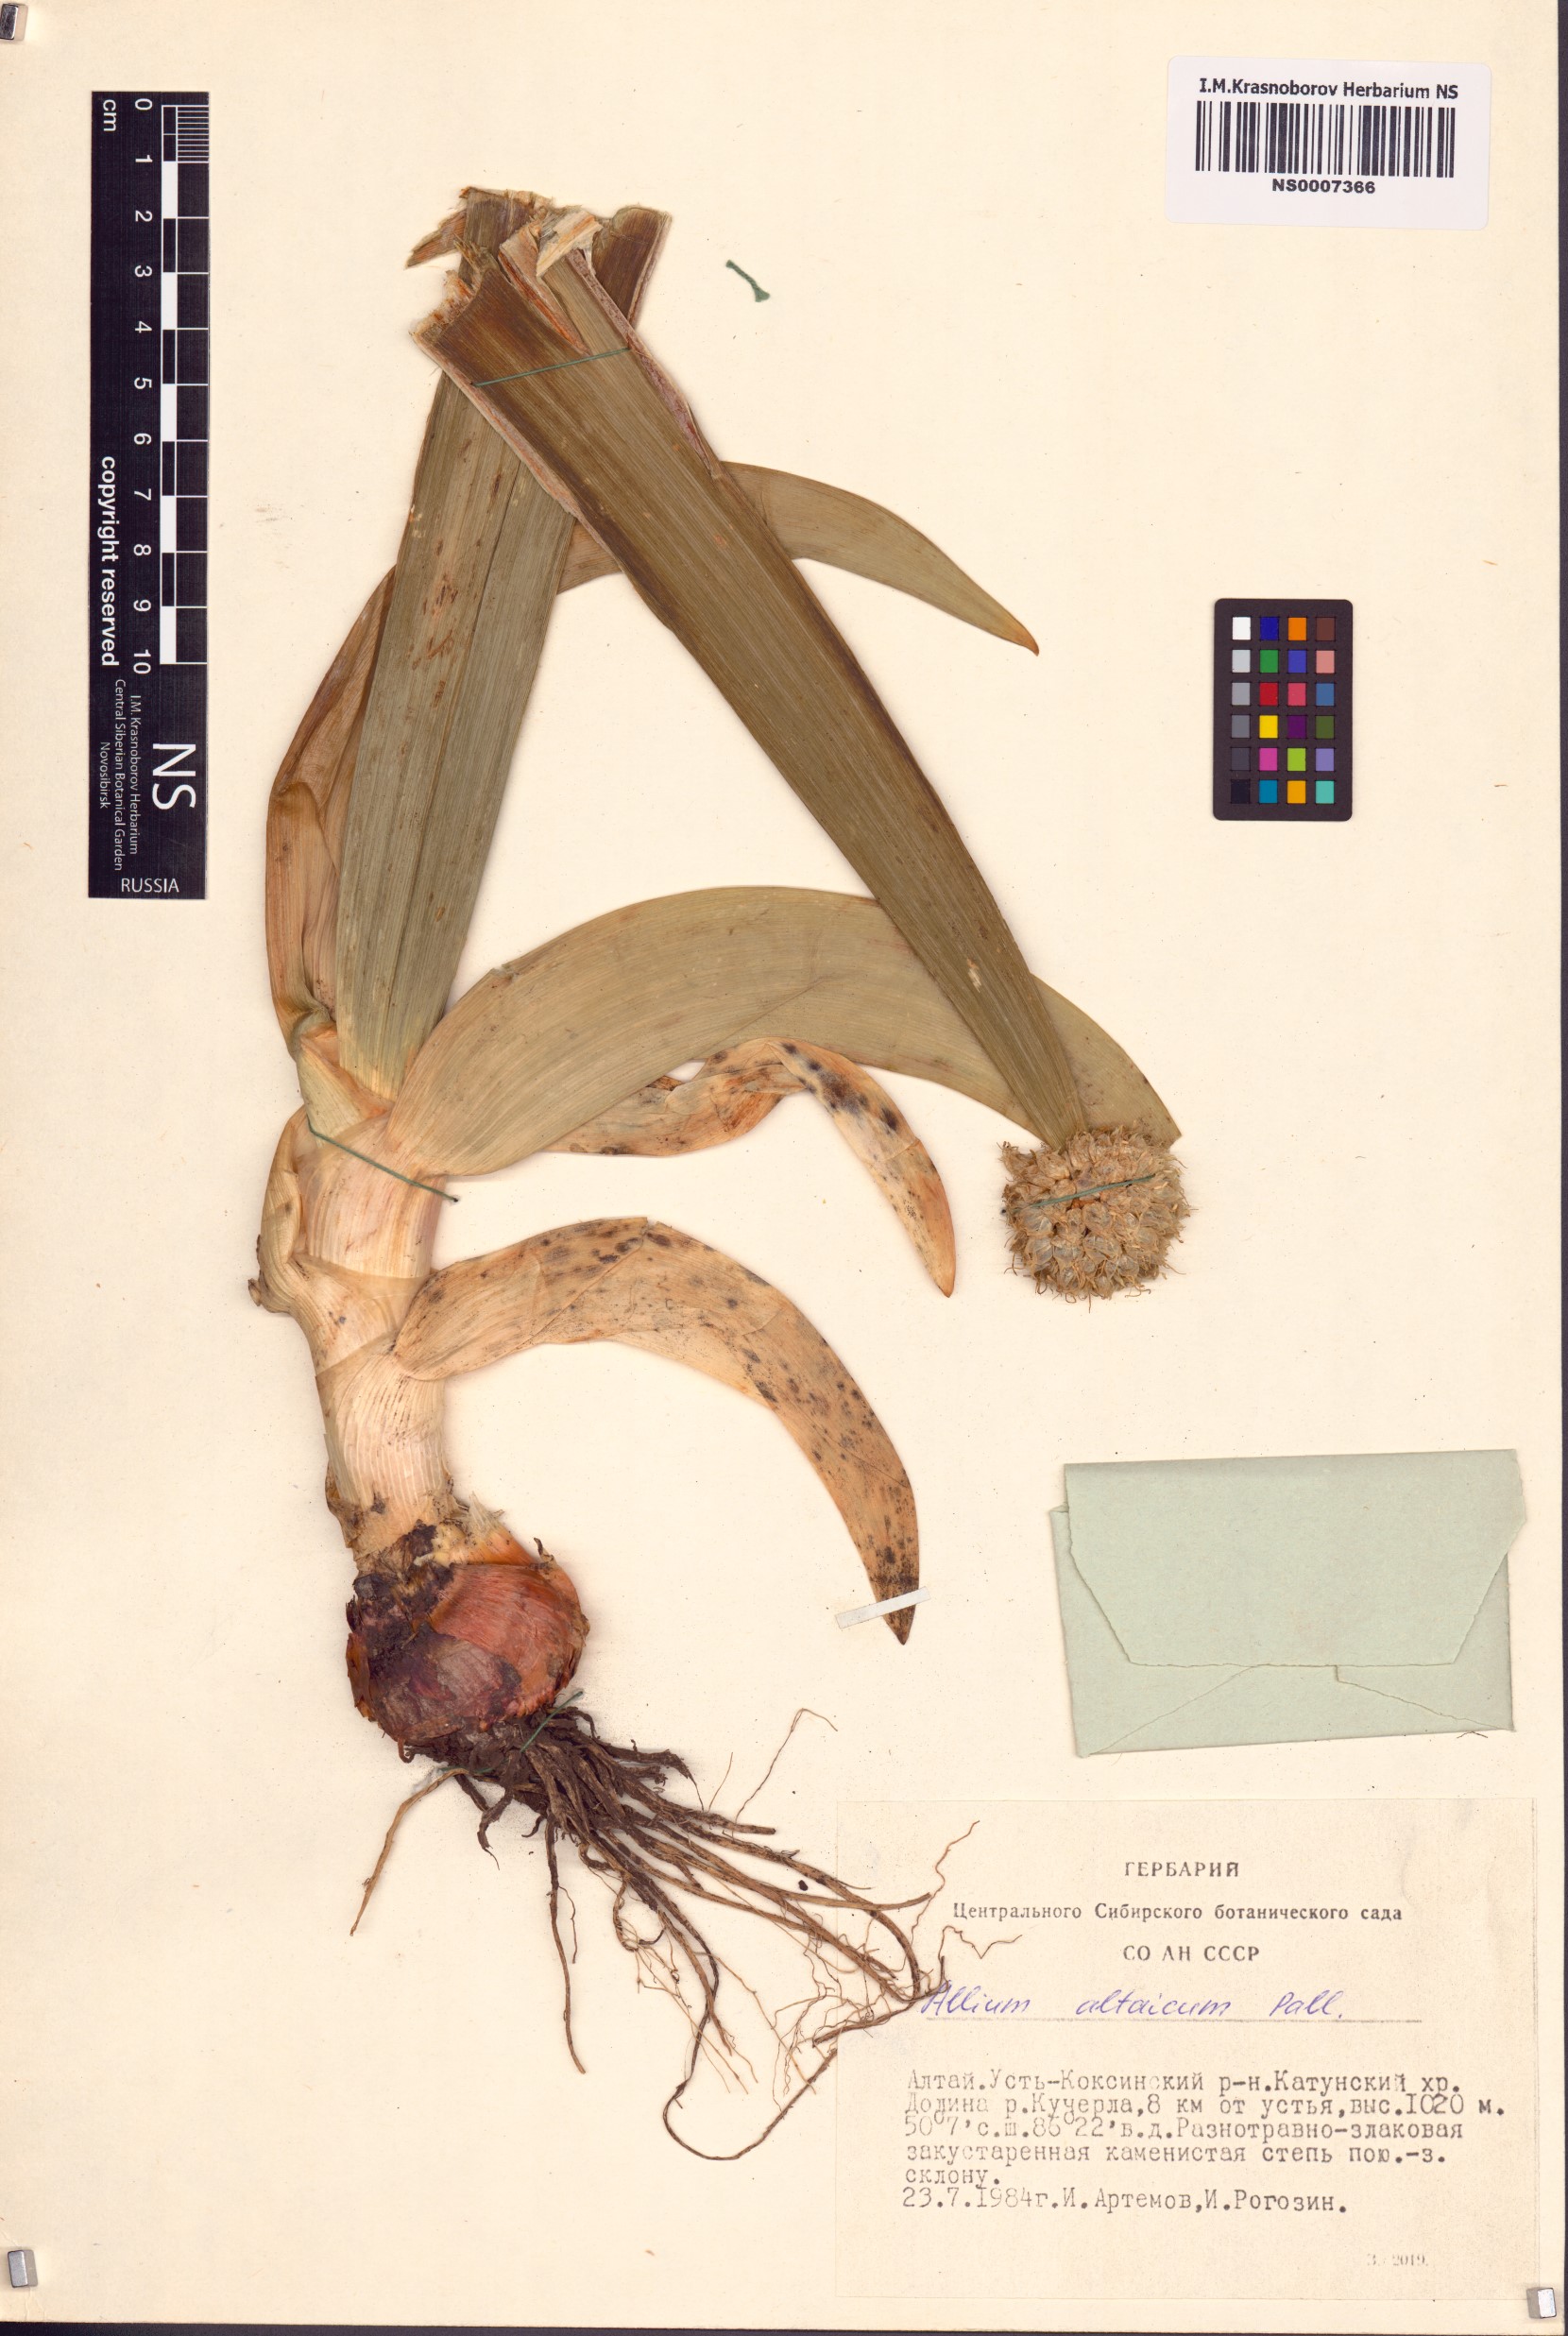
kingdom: Plantae
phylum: Tracheophyta
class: Liliopsida
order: Asparagales
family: Amaryllidaceae
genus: Allium
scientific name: Allium altaicum
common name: Altai onion
